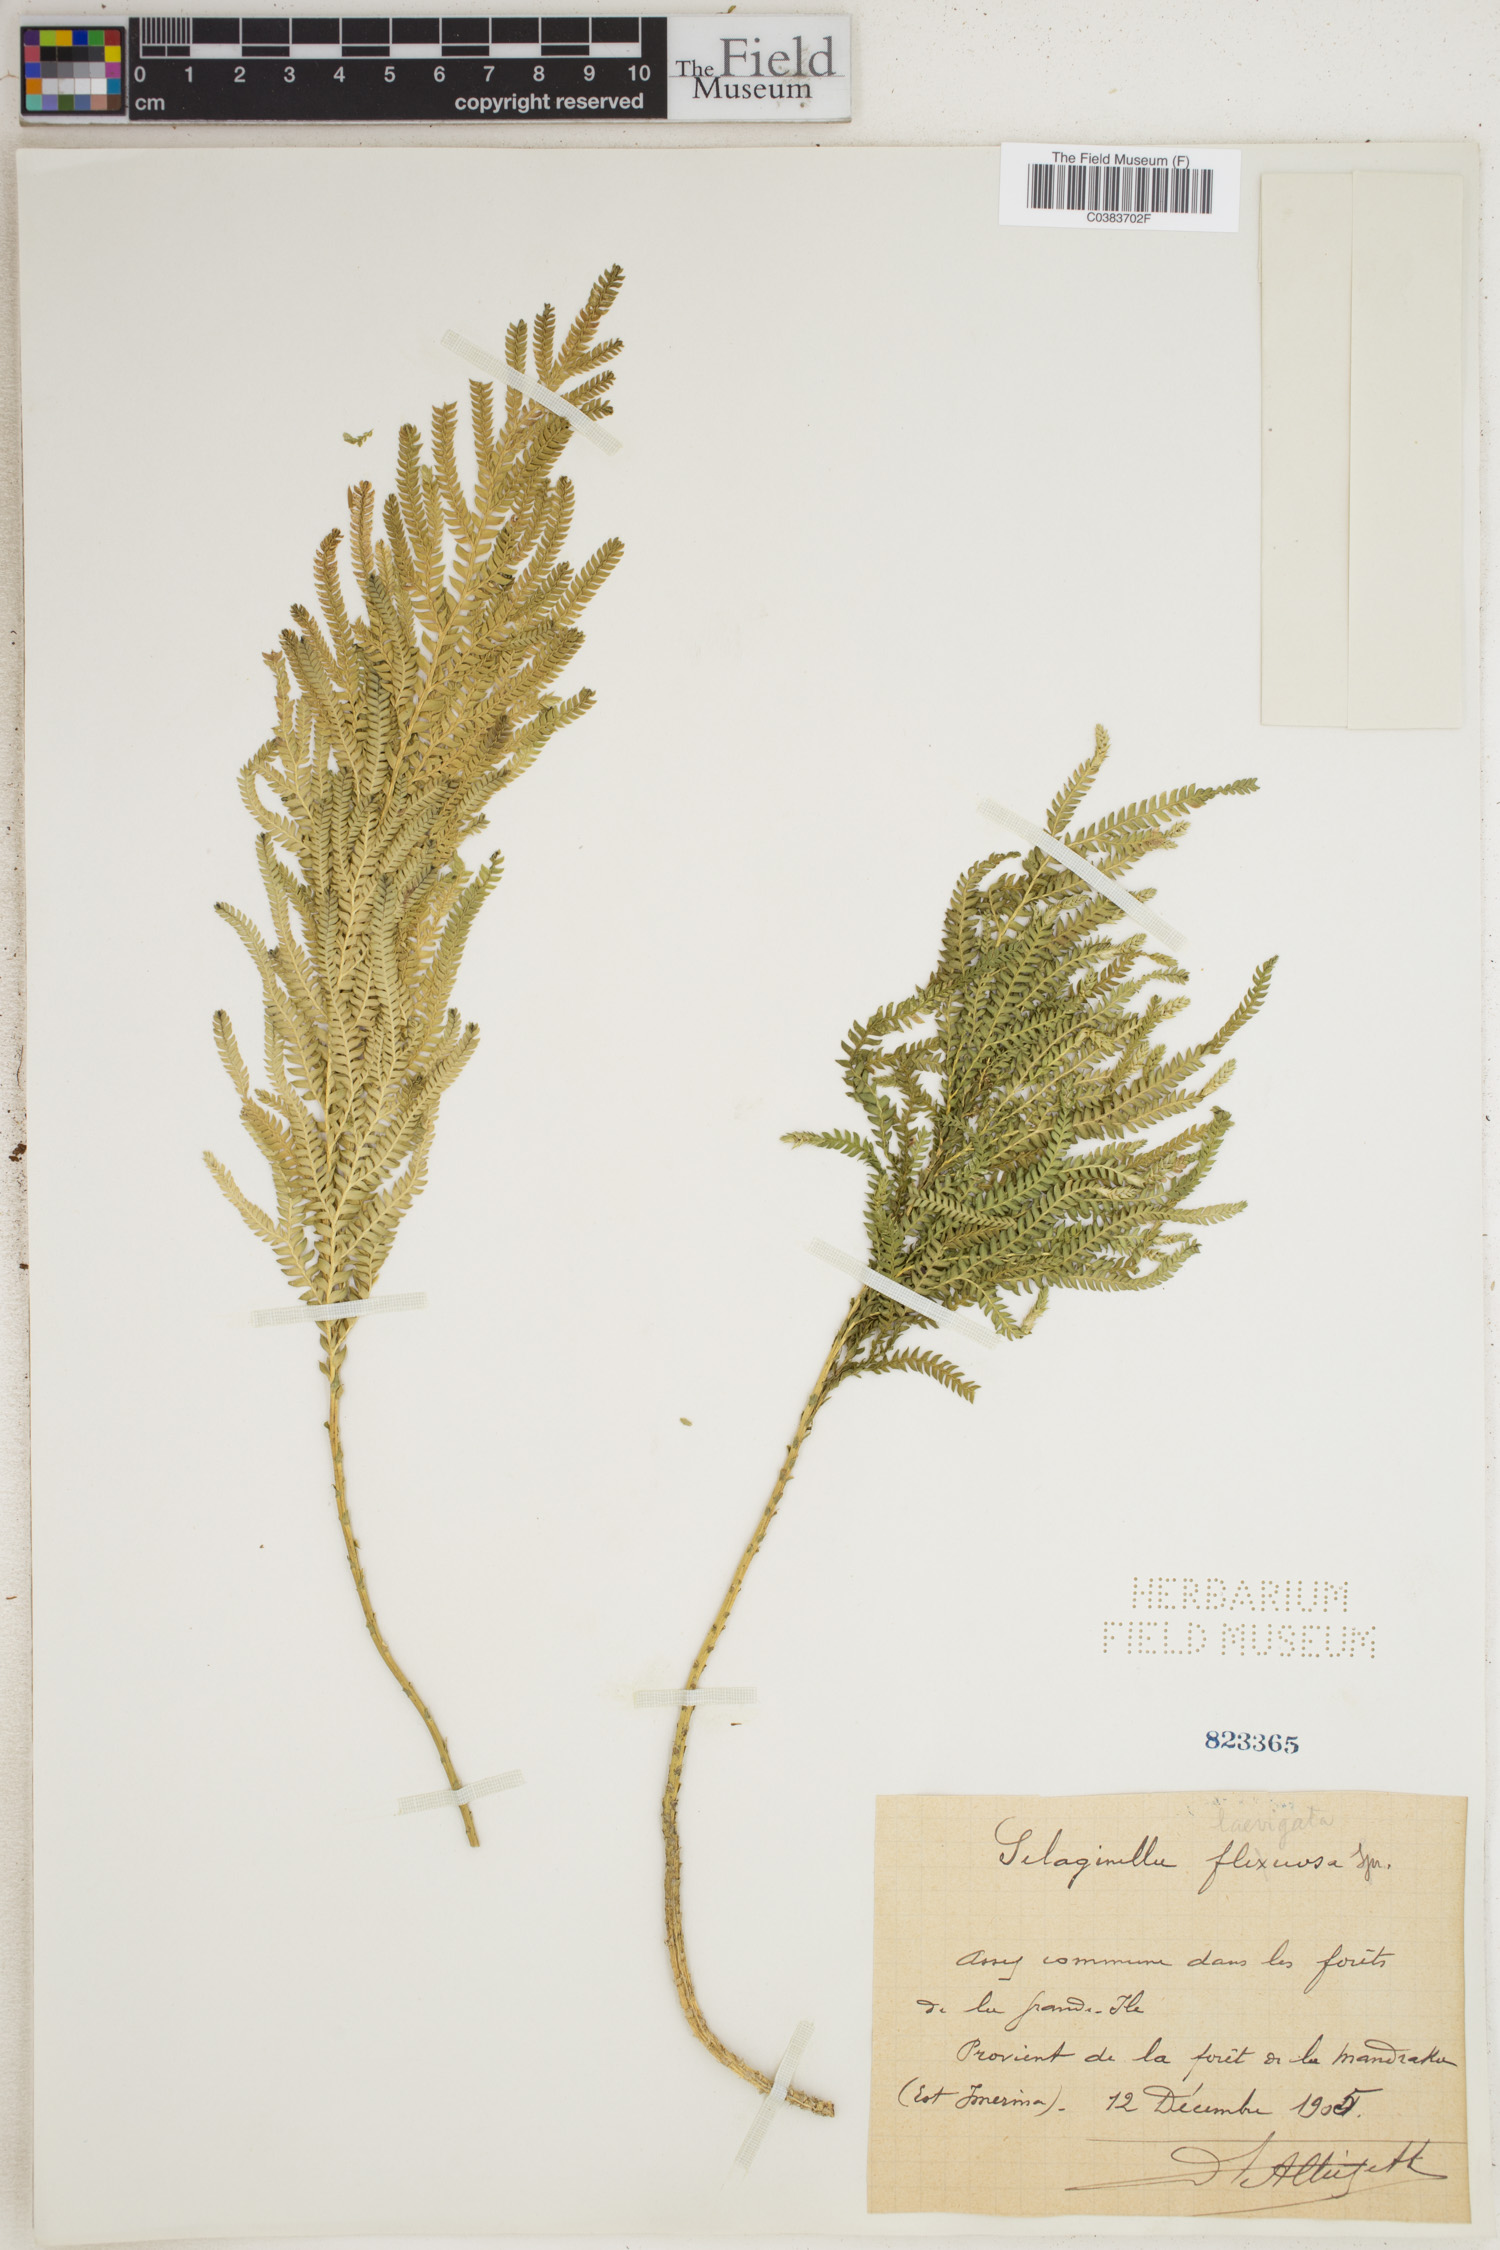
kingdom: Plantae
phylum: Tracheophyta
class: Lycopodiopsida
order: Selaginellales
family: Selaginellaceae
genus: Selaginella
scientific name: Selaginella flexuosa
